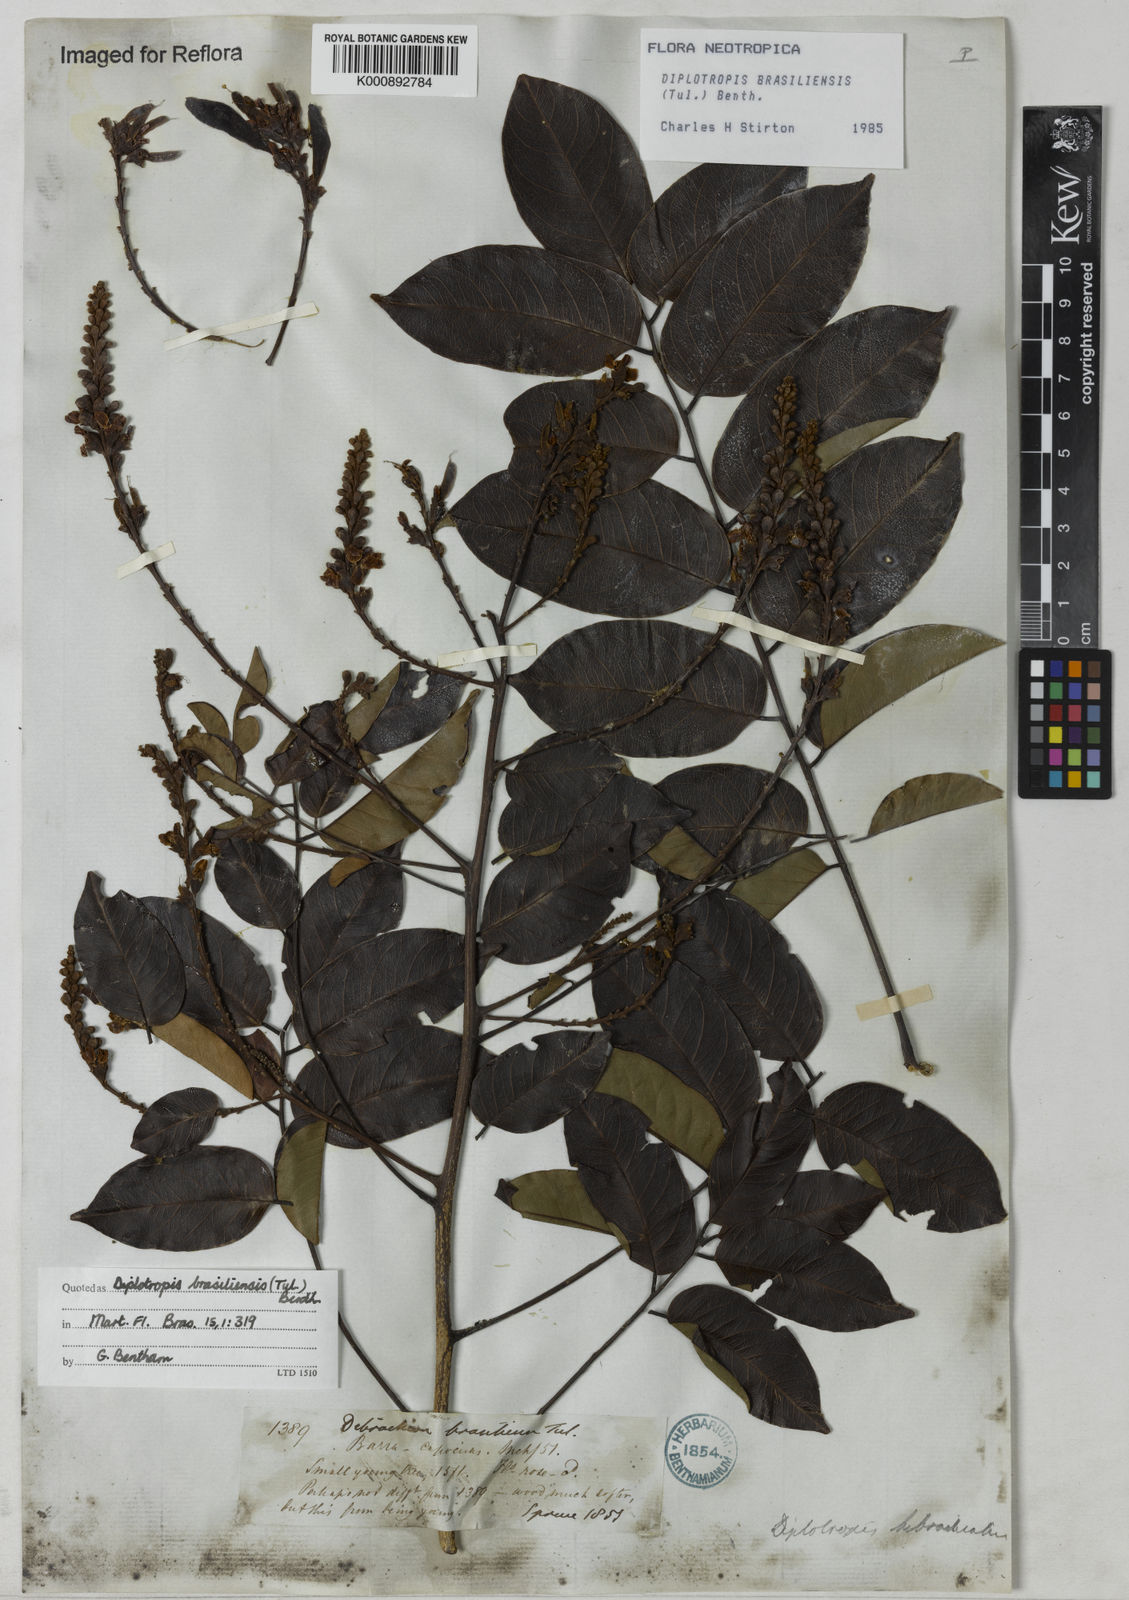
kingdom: Plantae
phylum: Tracheophyta
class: Magnoliopsida
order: Fabales
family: Fabaceae
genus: Diplotropis
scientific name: Diplotropis brasiliensis
